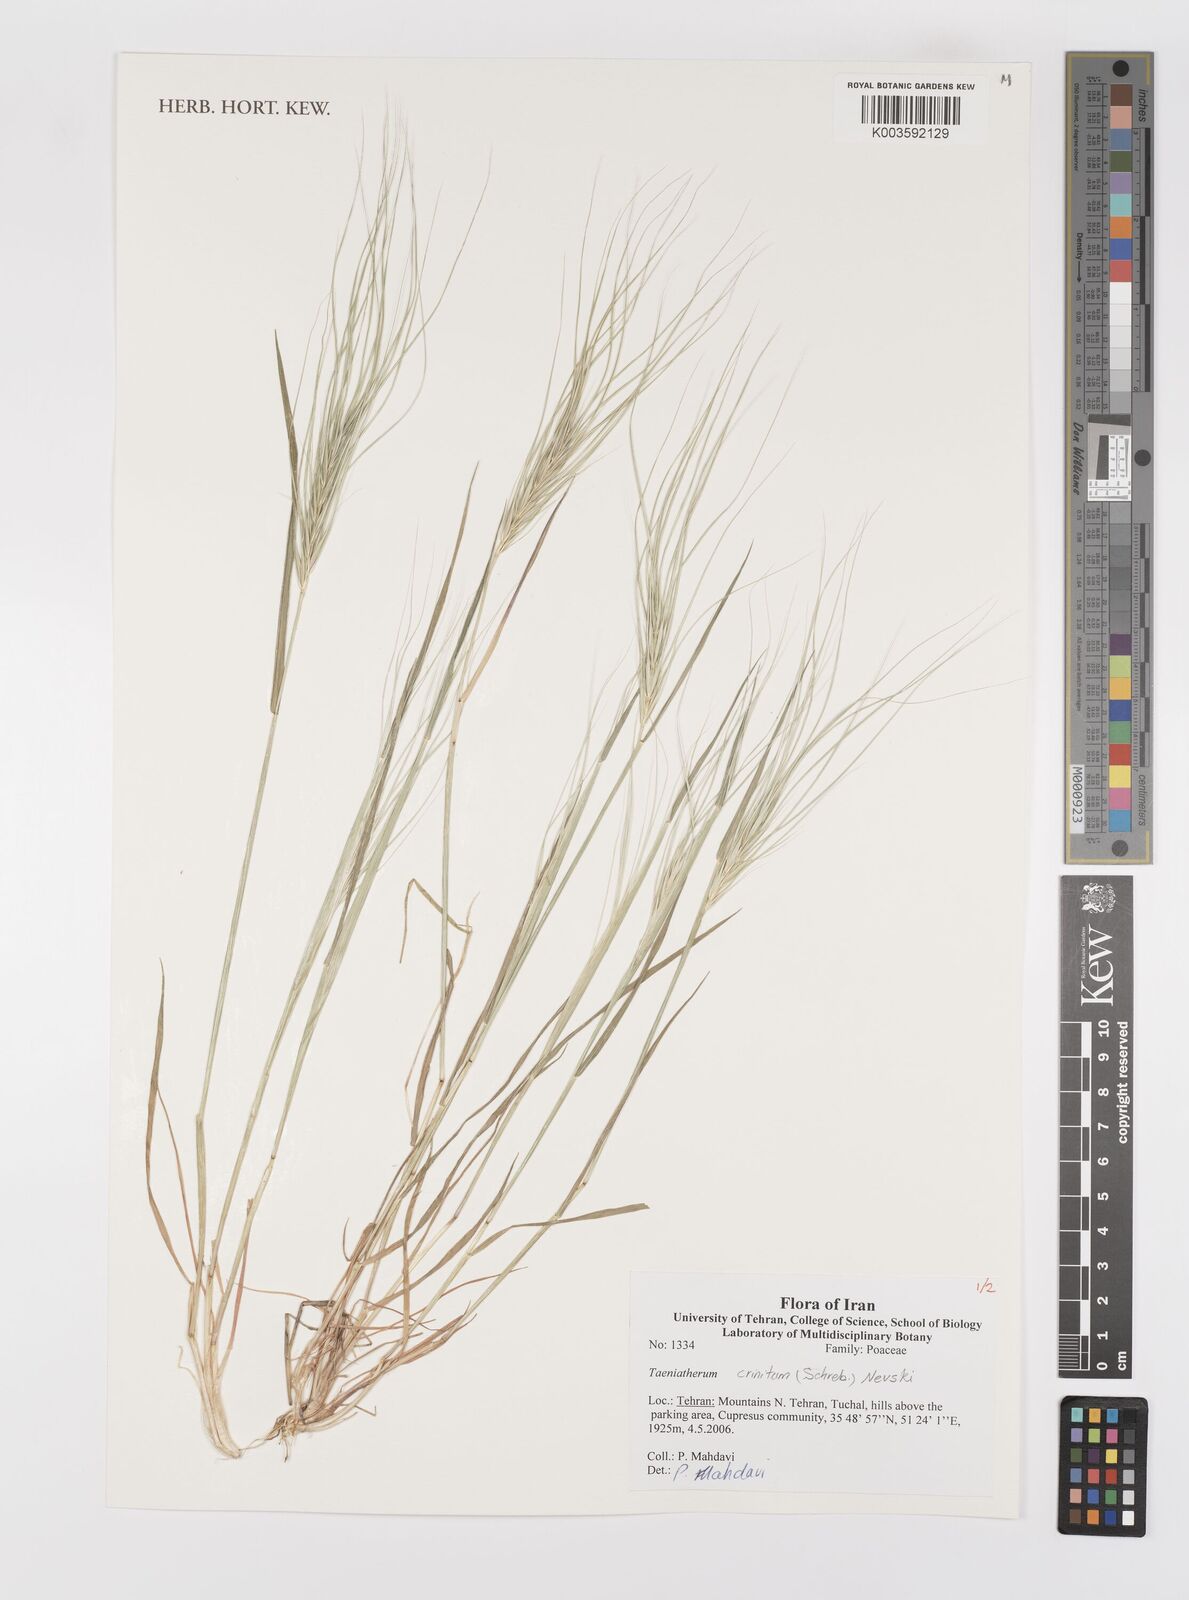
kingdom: Plantae
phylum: Tracheophyta
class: Liliopsida
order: Poales
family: Poaceae
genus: Taeniatherum
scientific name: Taeniatherum caput-medusae
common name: Medusahead
